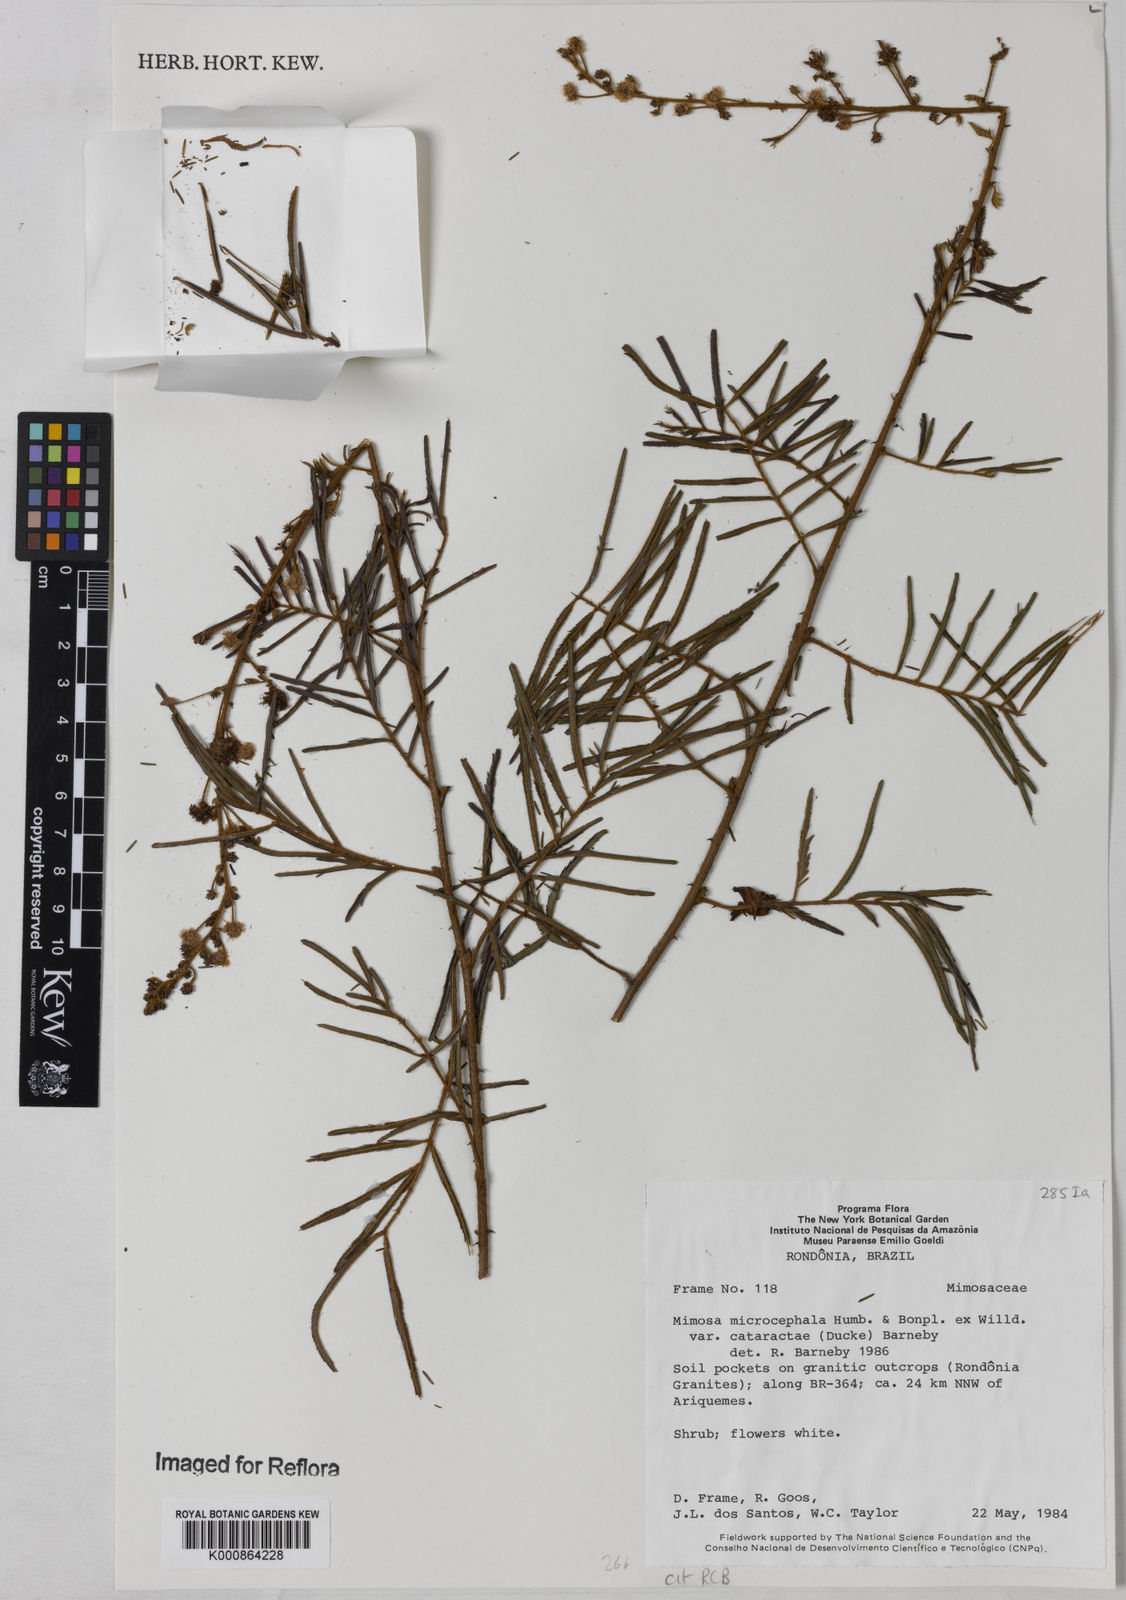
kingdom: Plantae
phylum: Tracheophyta
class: Magnoliopsida
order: Fabales
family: Fabaceae
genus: Mimosa
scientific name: Mimosa microcephala
